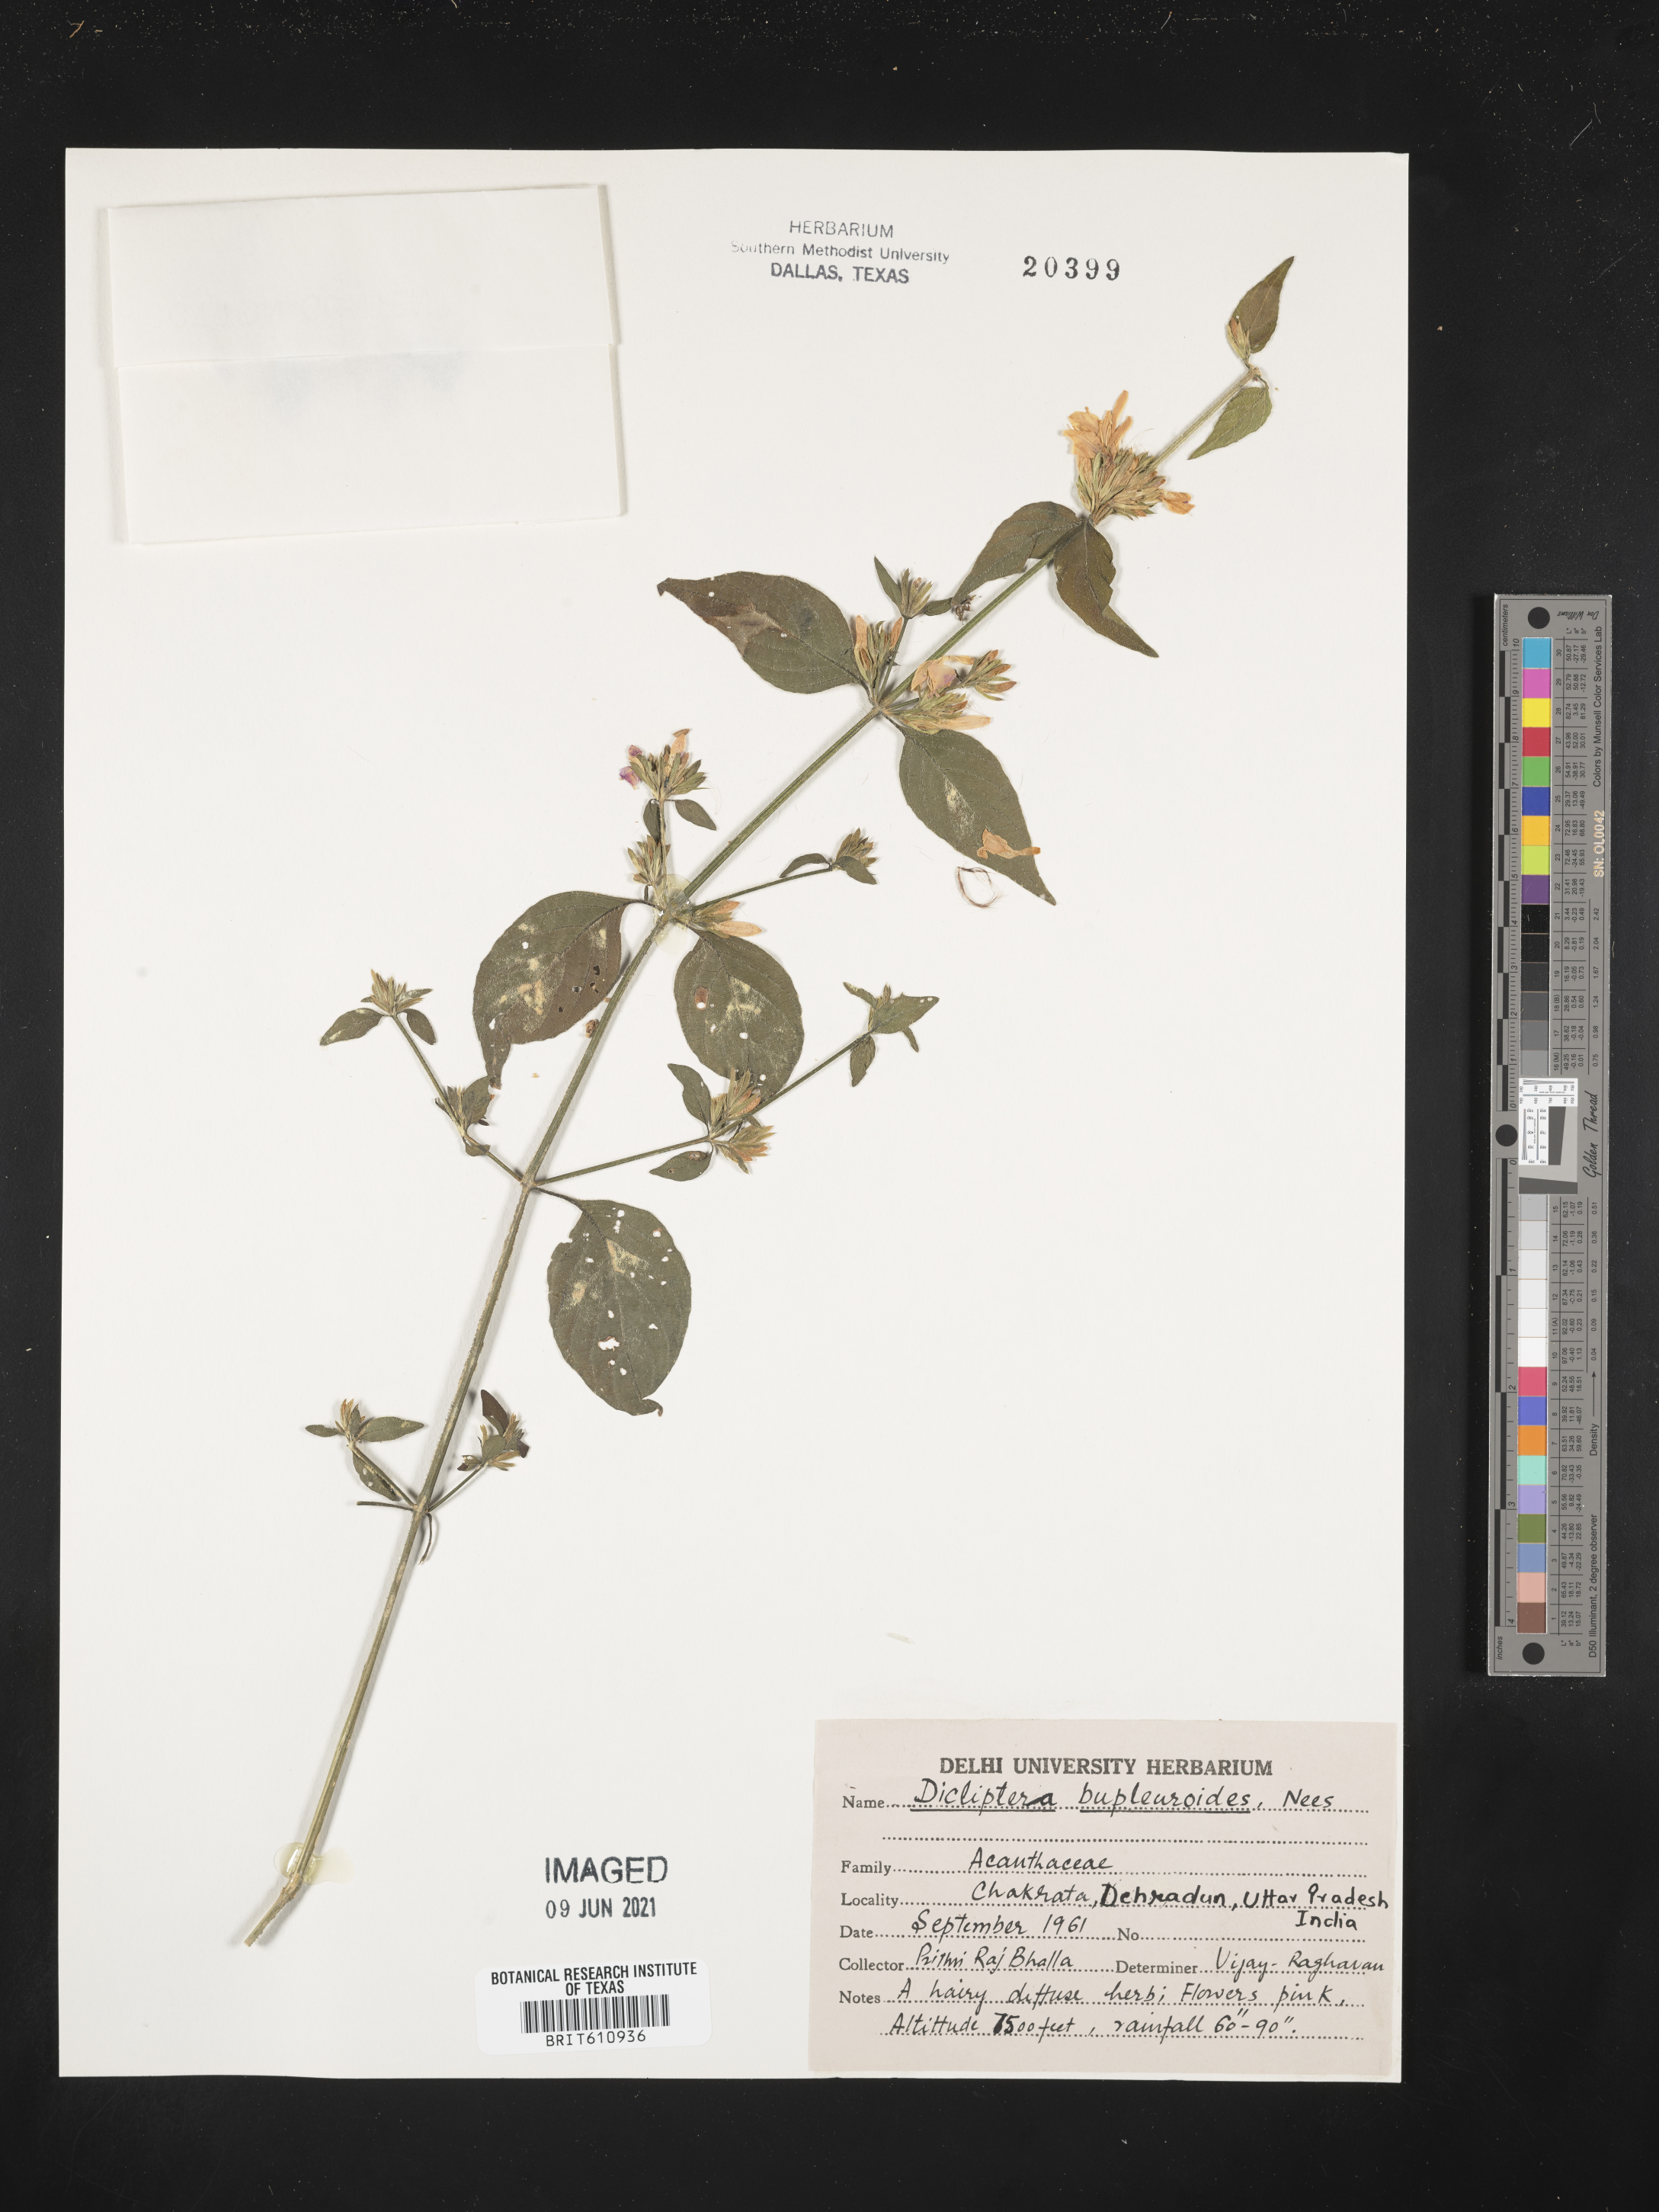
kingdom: Plantae
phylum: Tracheophyta
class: Magnoliopsida
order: Lamiales
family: Acanthaceae
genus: Dicliptera
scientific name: Dicliptera bupleuroides
